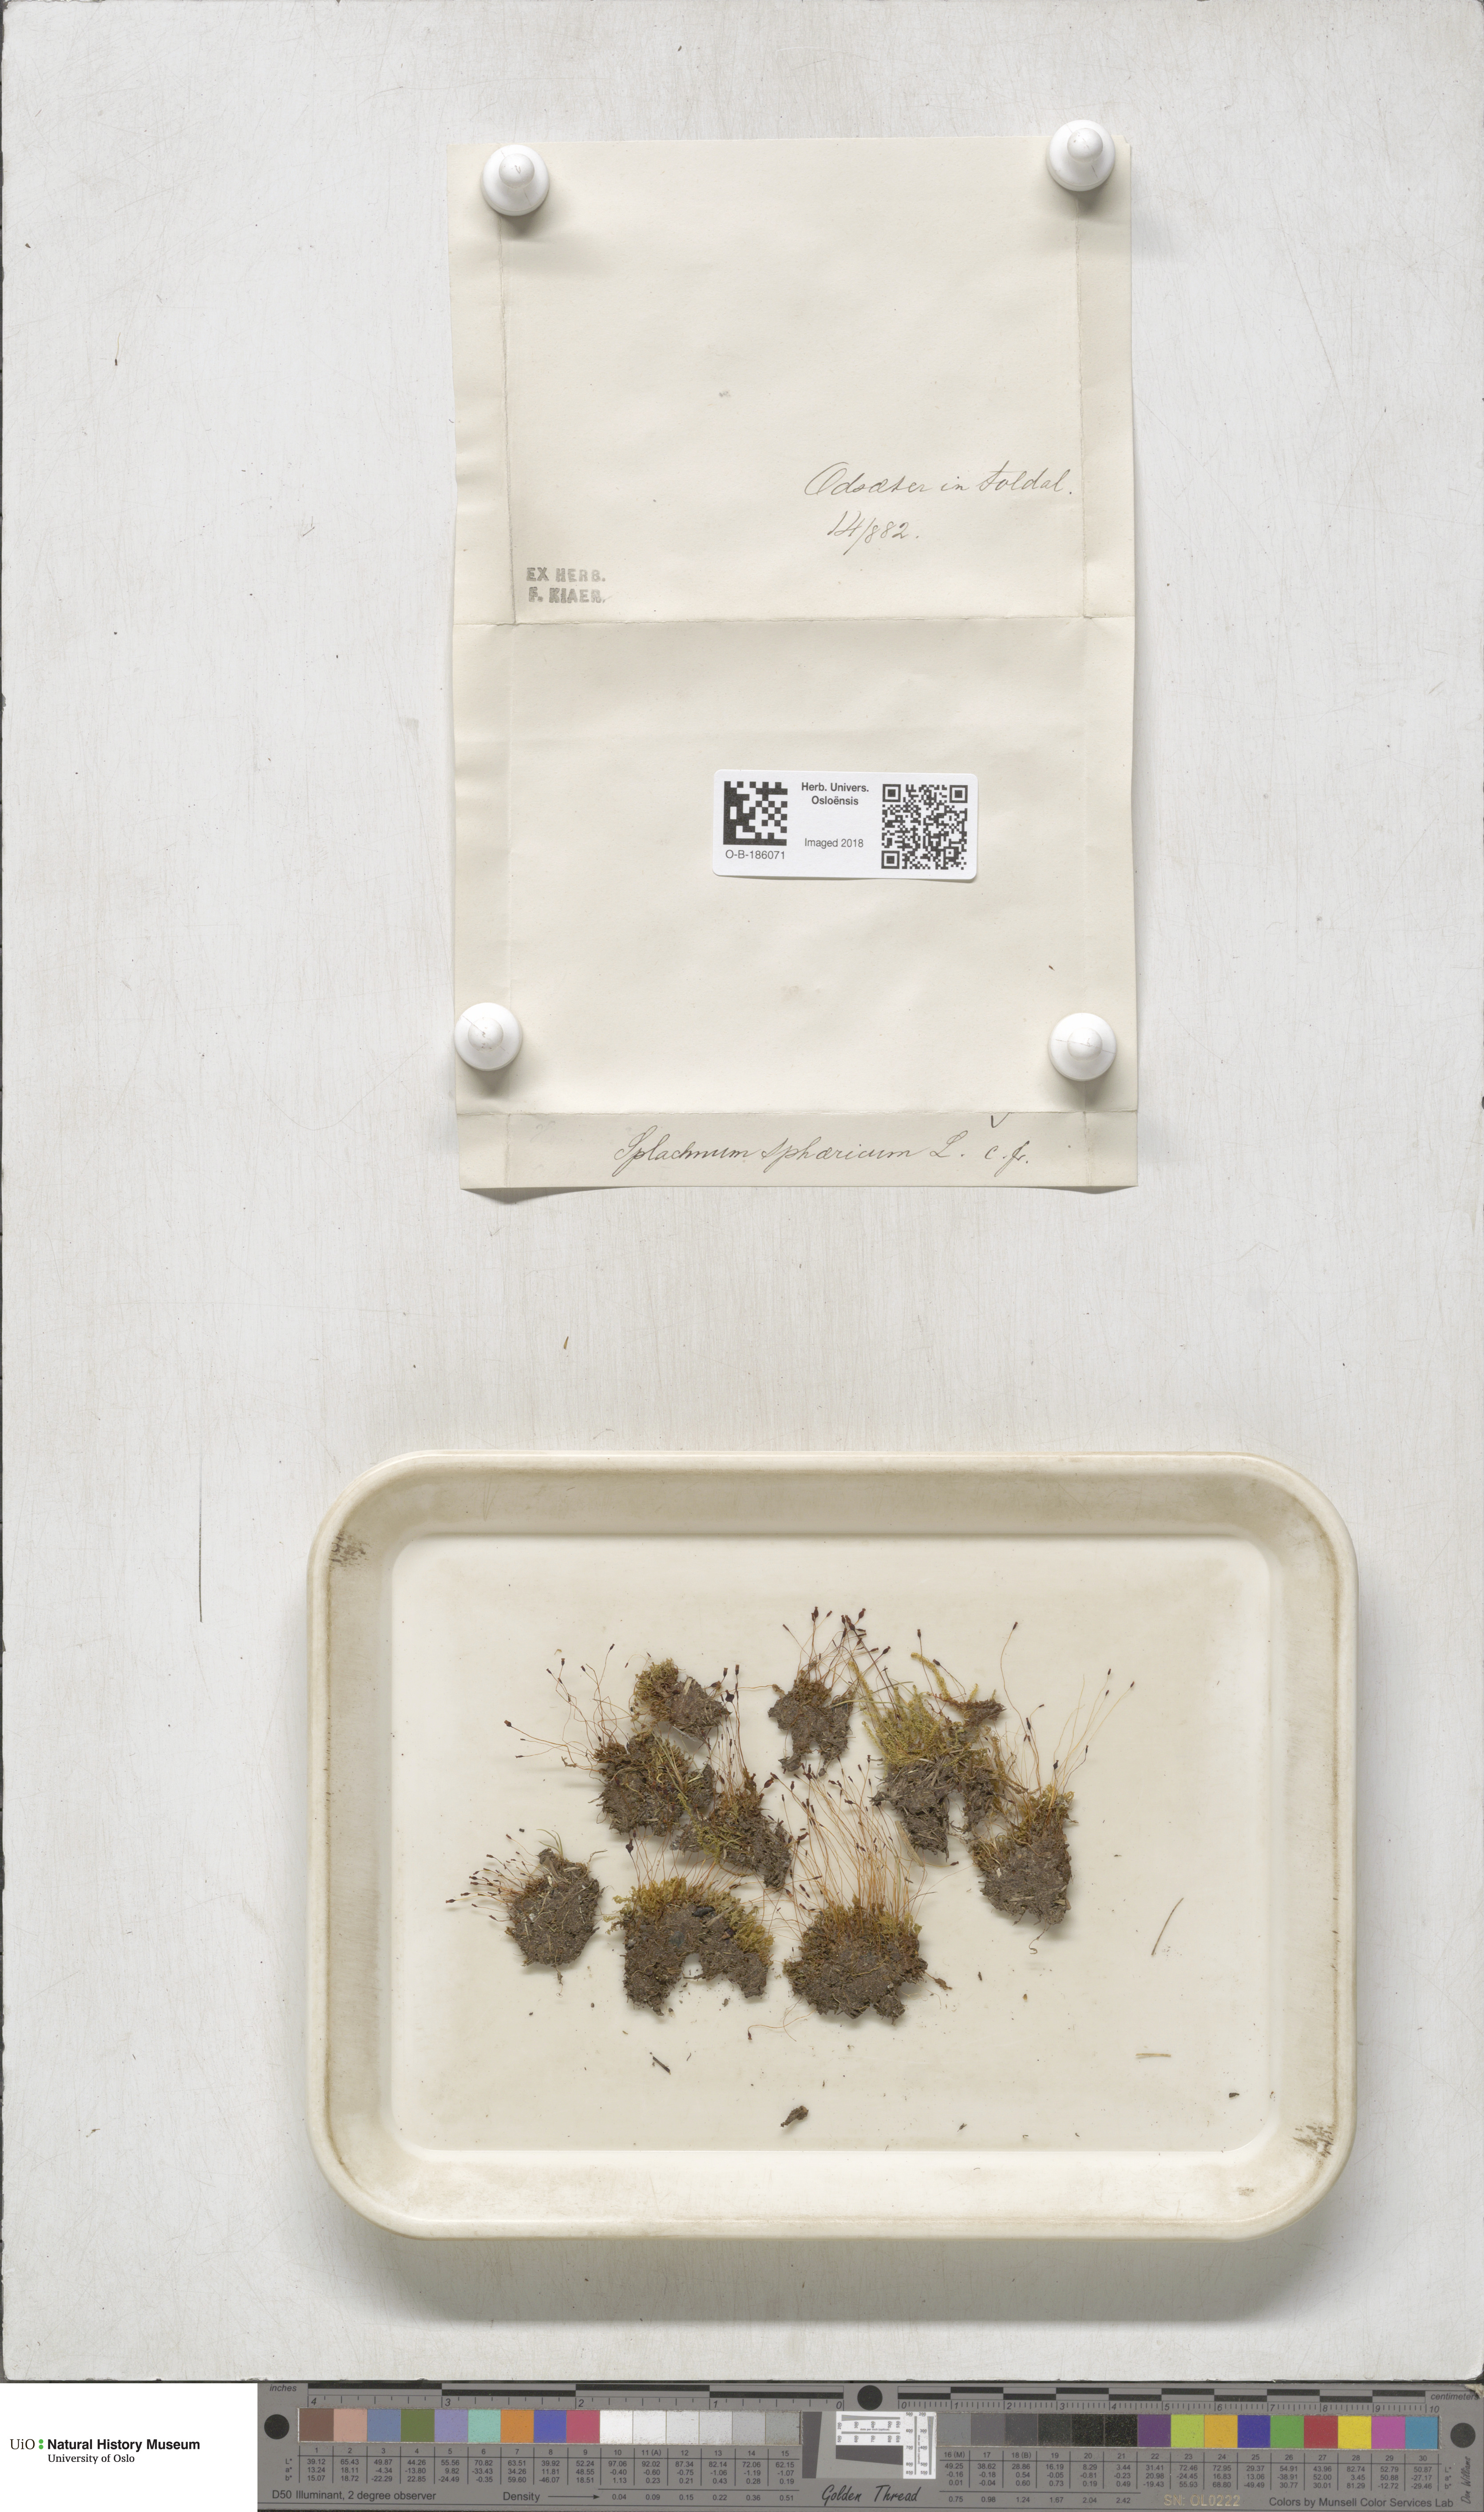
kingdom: Plantae
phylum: Bryophyta
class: Bryopsida
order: Splachnales
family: Splachnaceae
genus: Splachnum
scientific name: Splachnum sphaericum
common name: Round-fruited dung moss
